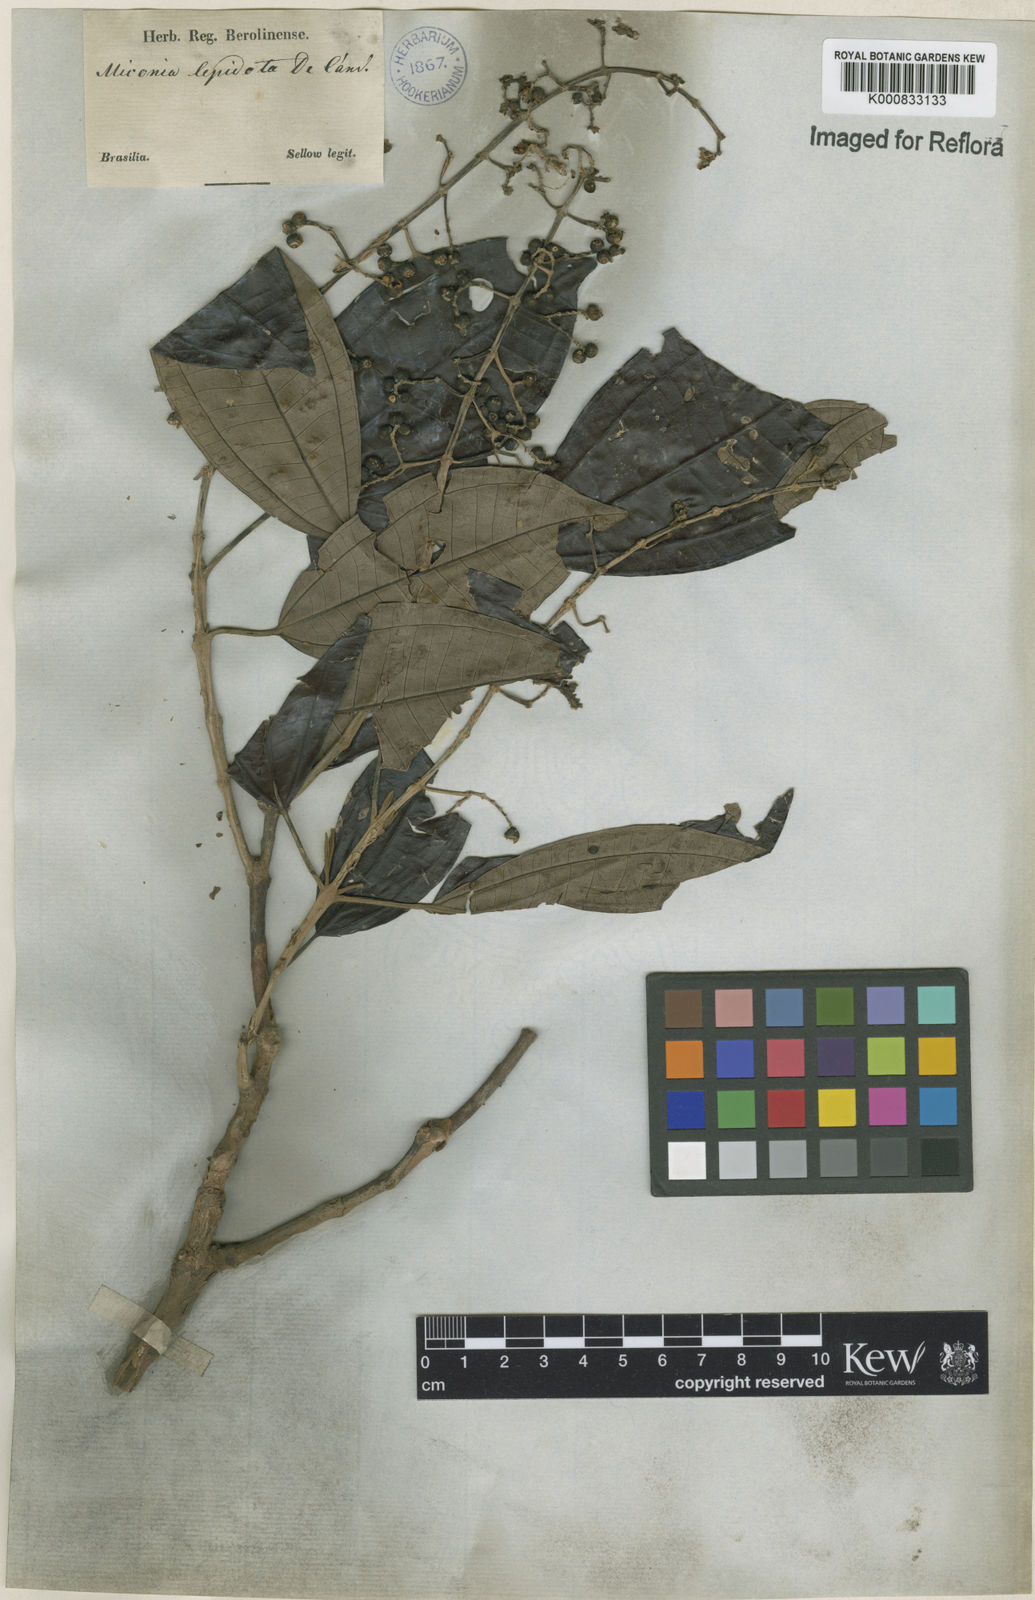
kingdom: Plantae
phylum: Tracheophyta
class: Magnoliopsida
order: Myrtales
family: Melastomataceae
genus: Miconia
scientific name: Miconia lepidota
